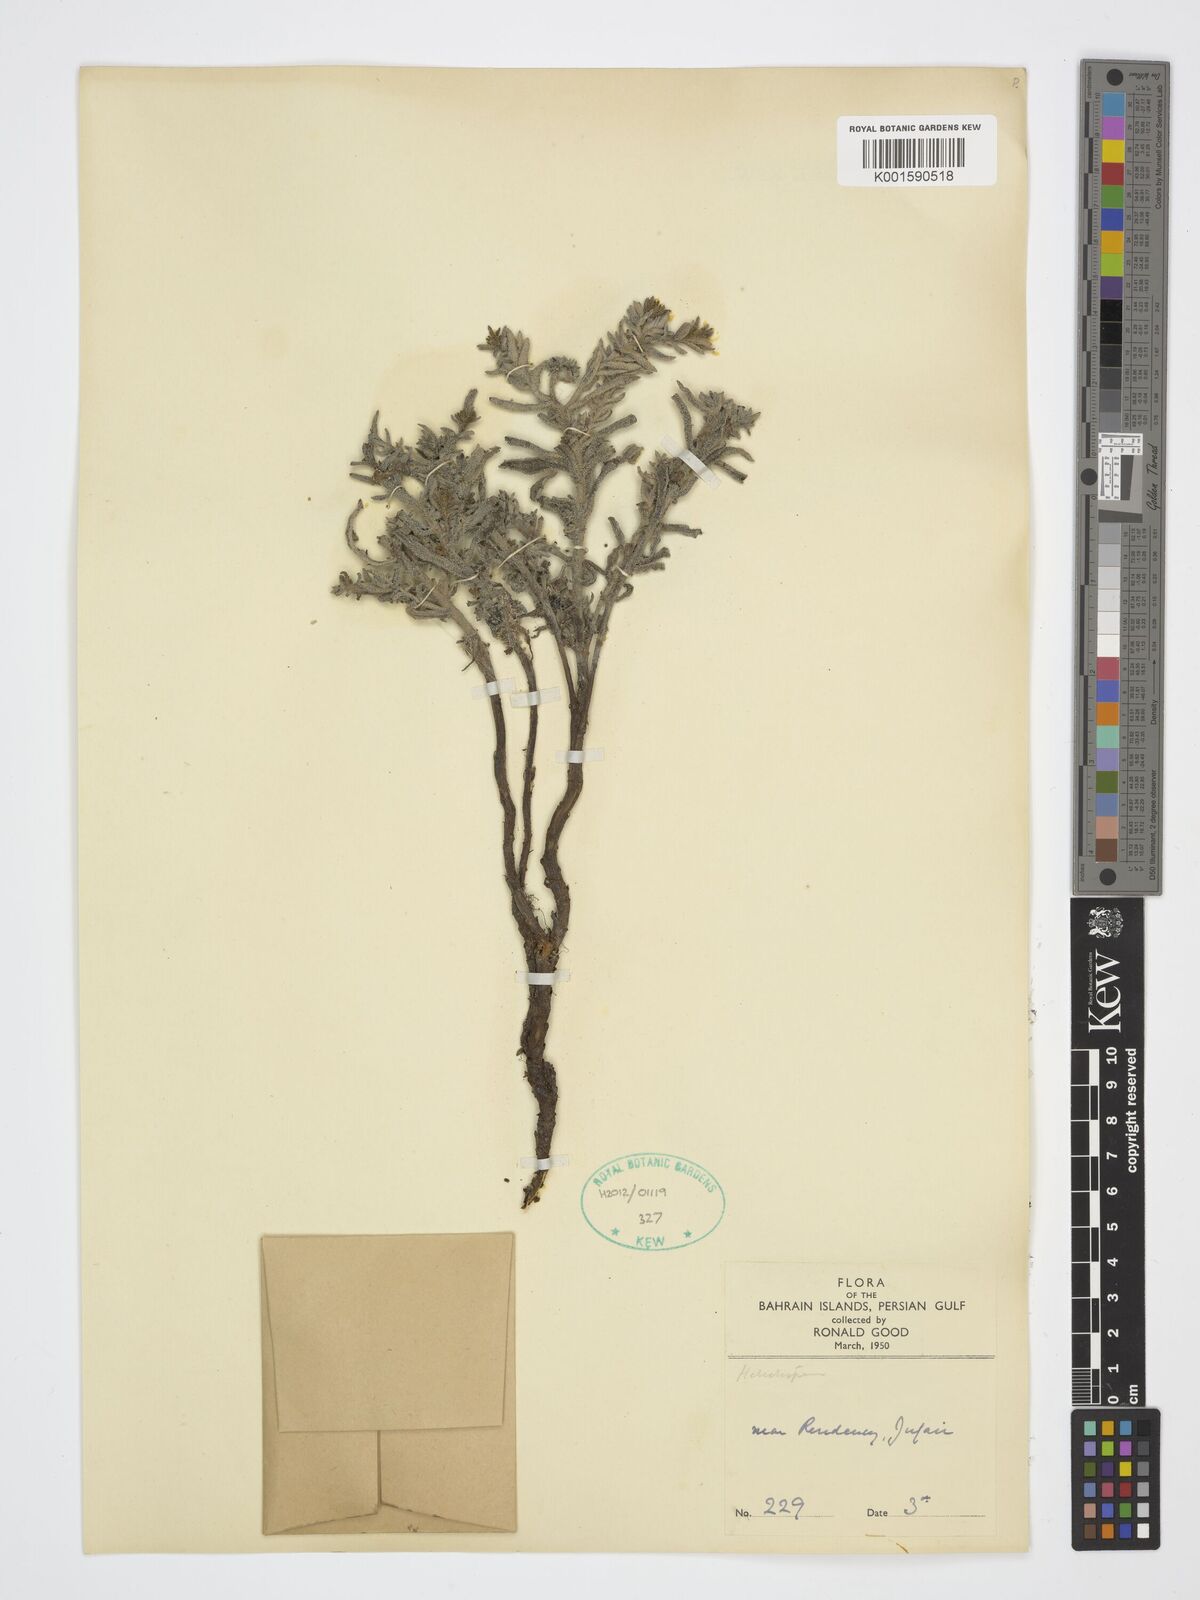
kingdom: Plantae
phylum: Tracheophyta
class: Magnoliopsida
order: Boraginales
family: Heliotropiaceae
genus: Heliotropium
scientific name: Heliotropium
